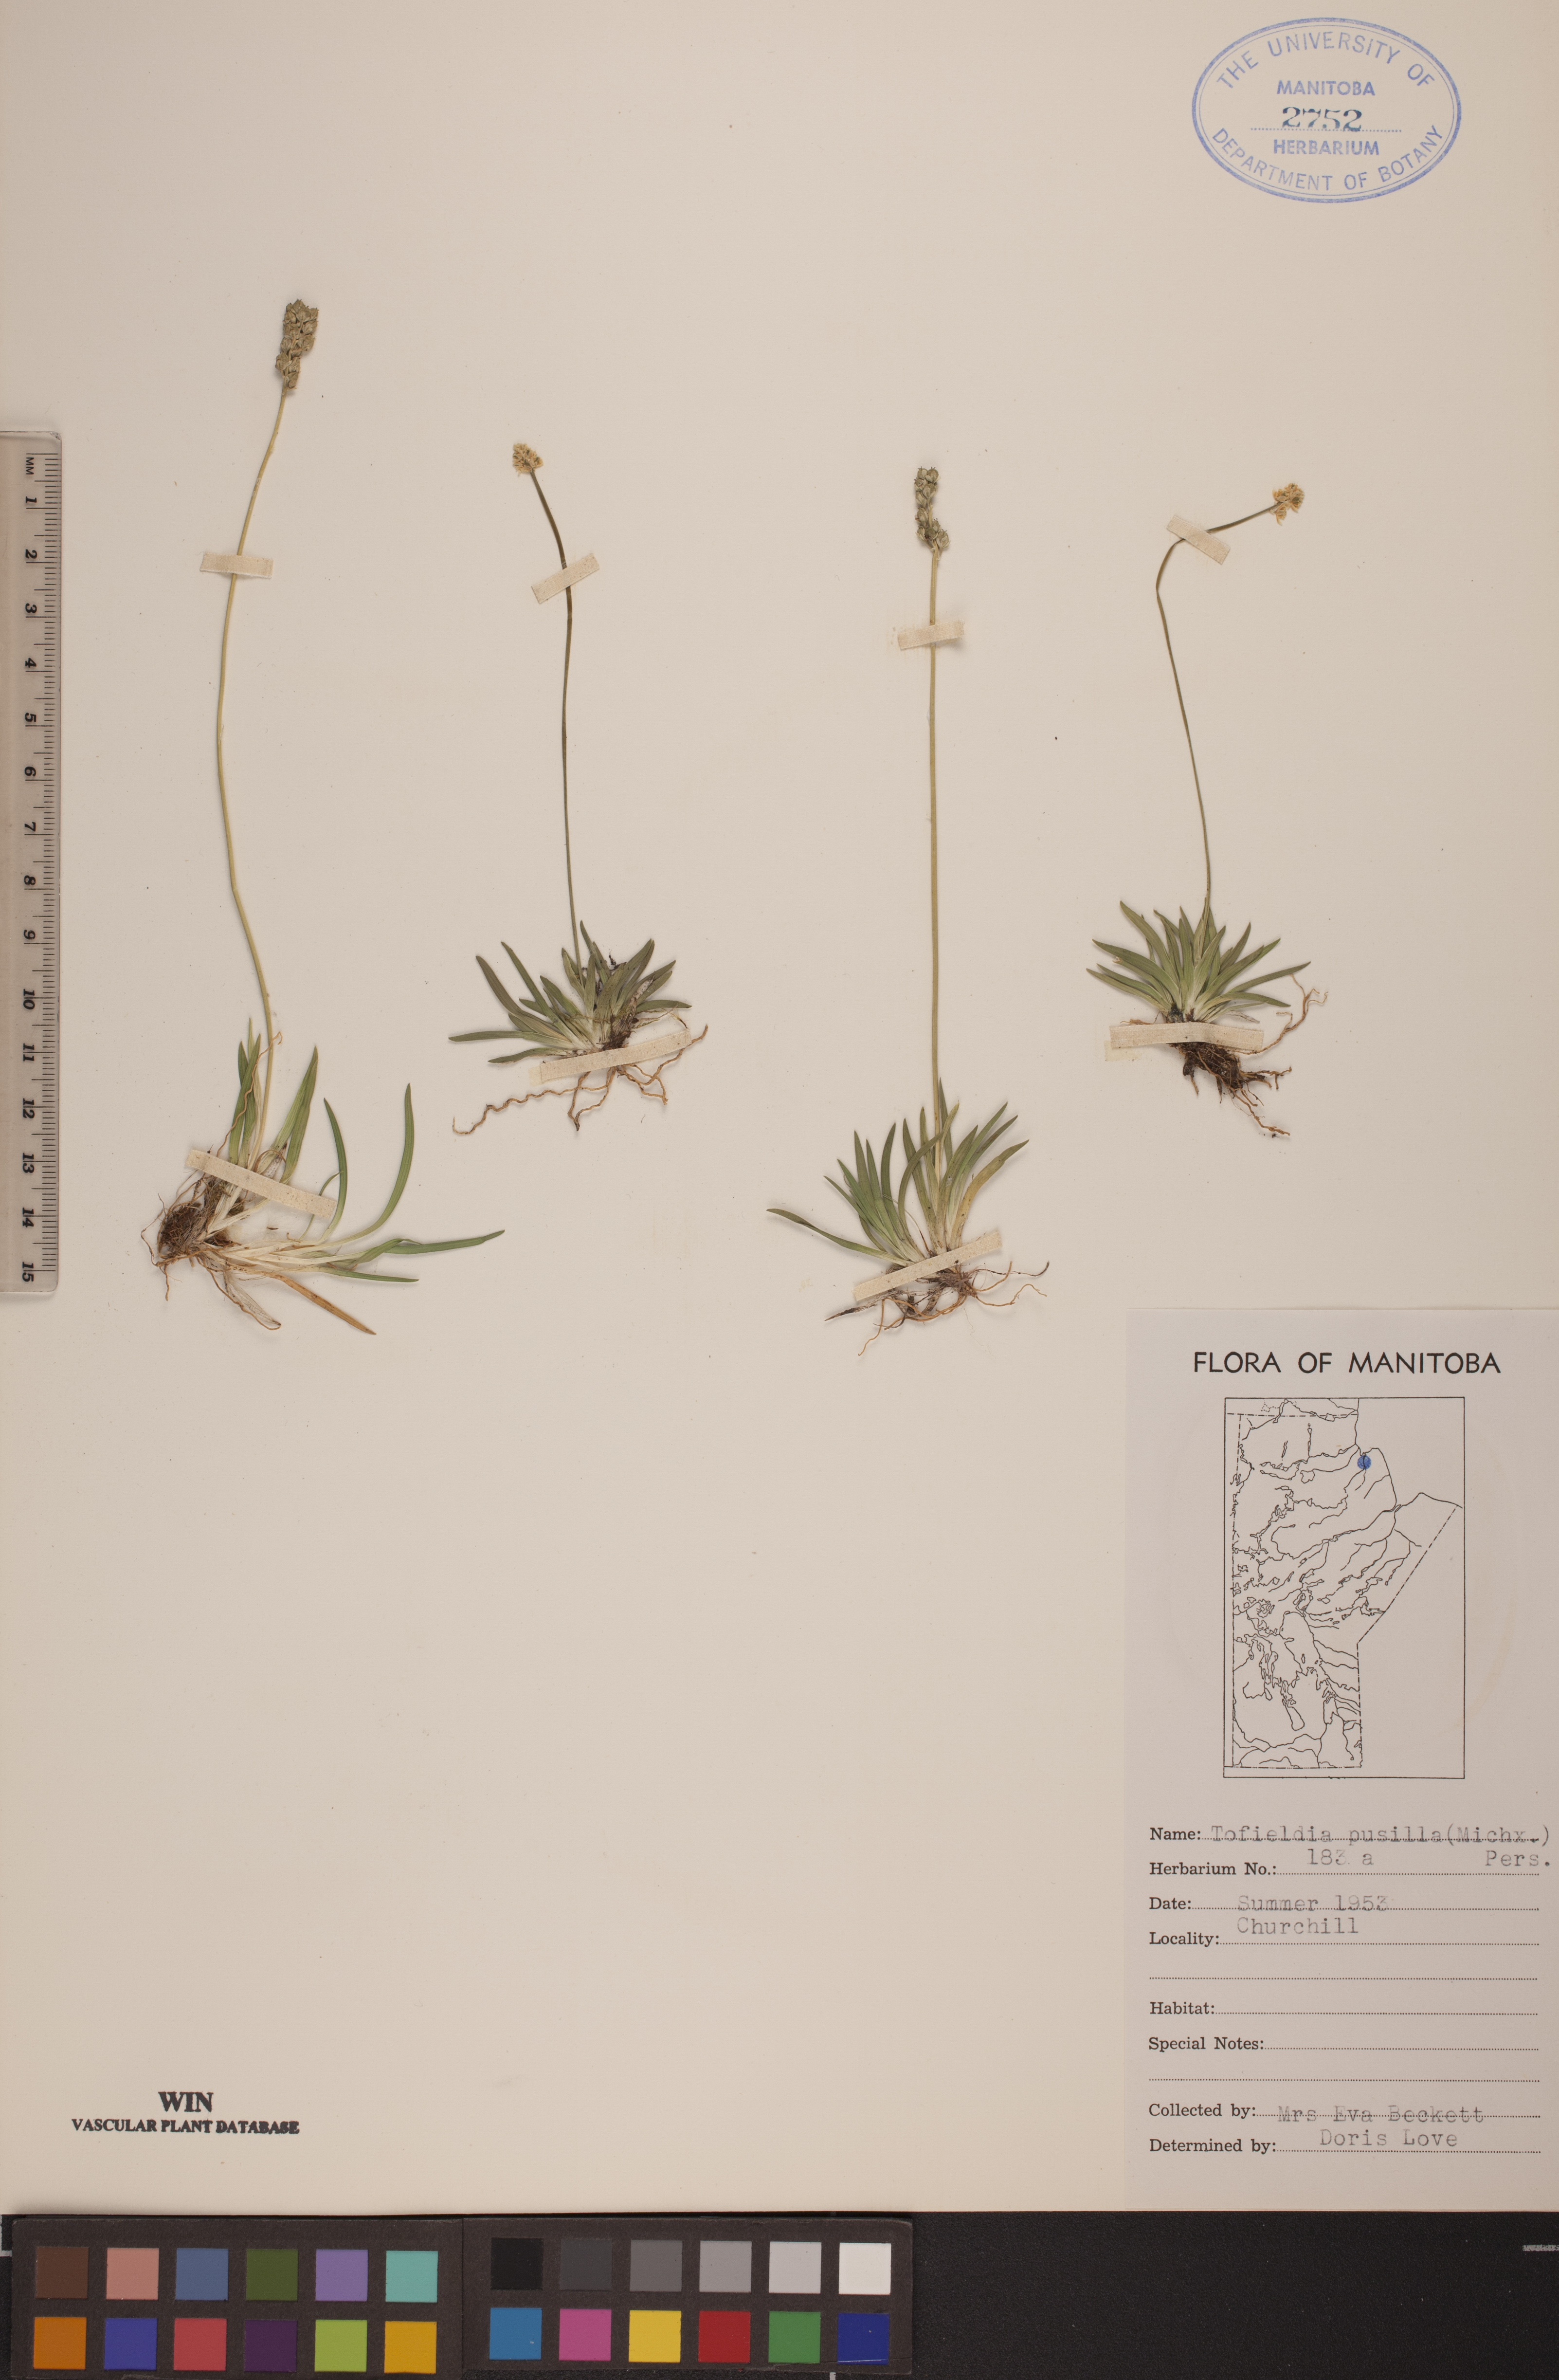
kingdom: Plantae
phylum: Tracheophyta
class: Liliopsida
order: Alismatales
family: Tofieldiaceae
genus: Tofieldia
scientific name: Tofieldia pusilla
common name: Scottish false asphodel
